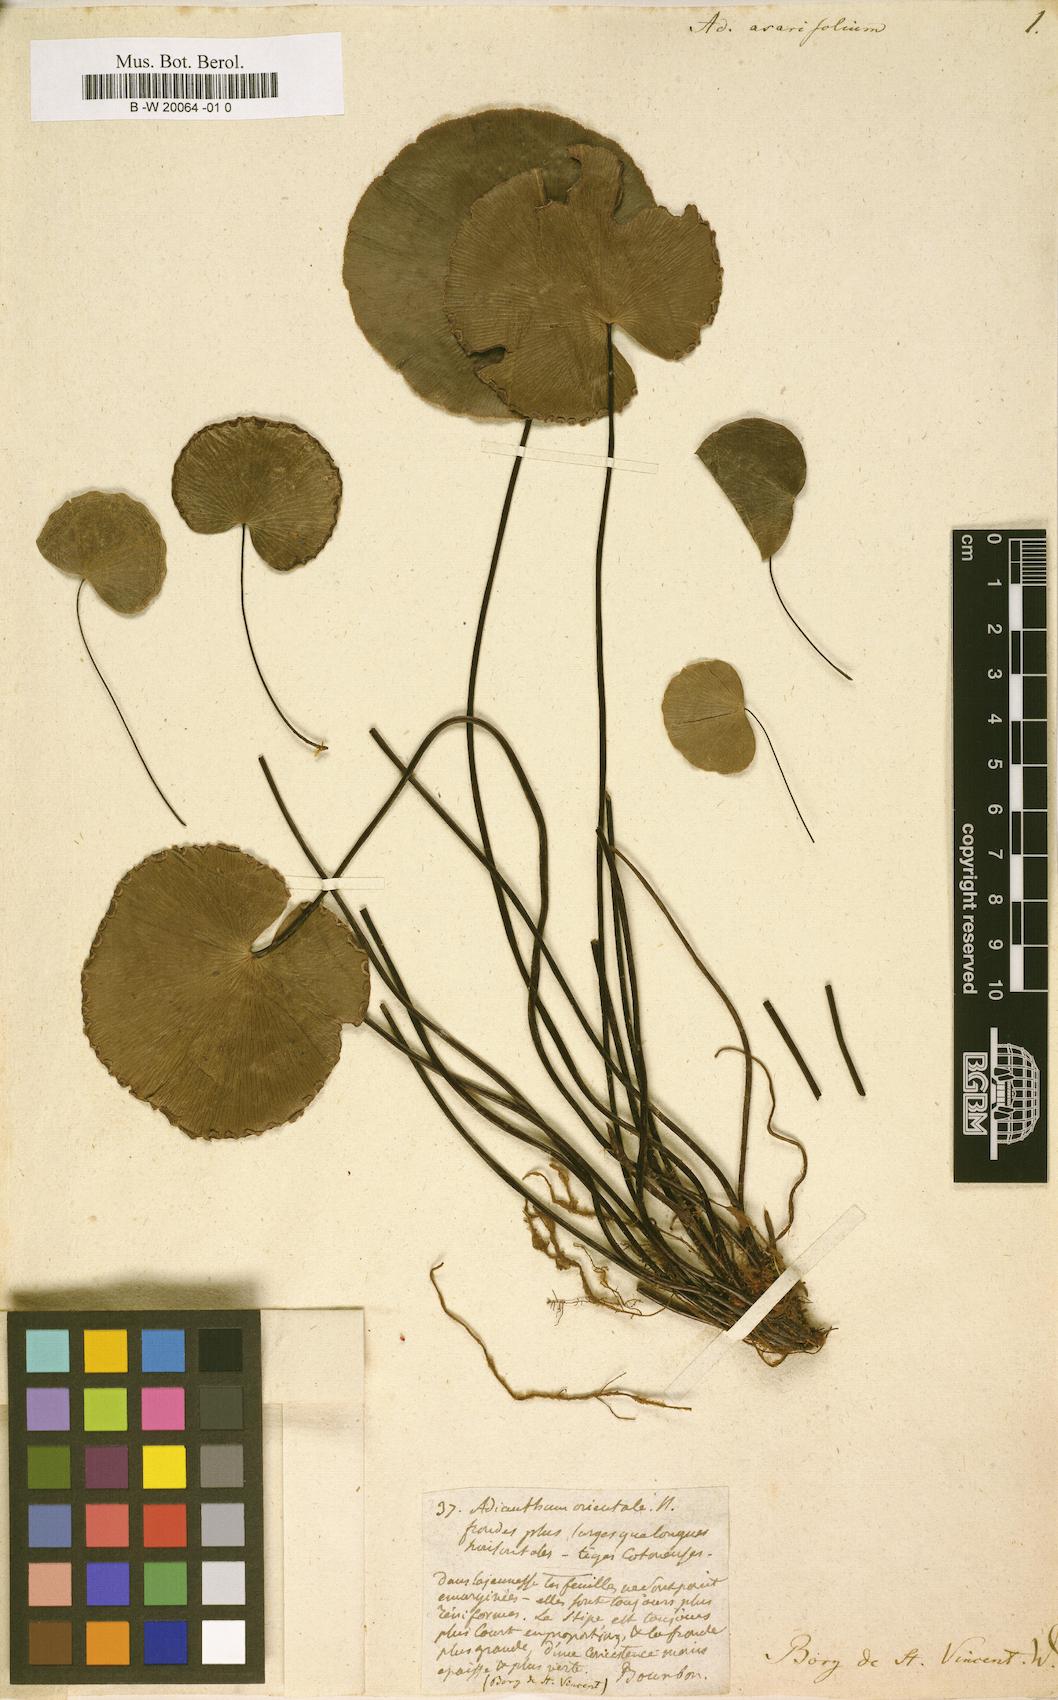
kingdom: Plantae
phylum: Tracheophyta
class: Polypodiopsida
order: Polypodiales
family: Pteridaceae
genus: Adiantum
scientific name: Adiantum reniforme
